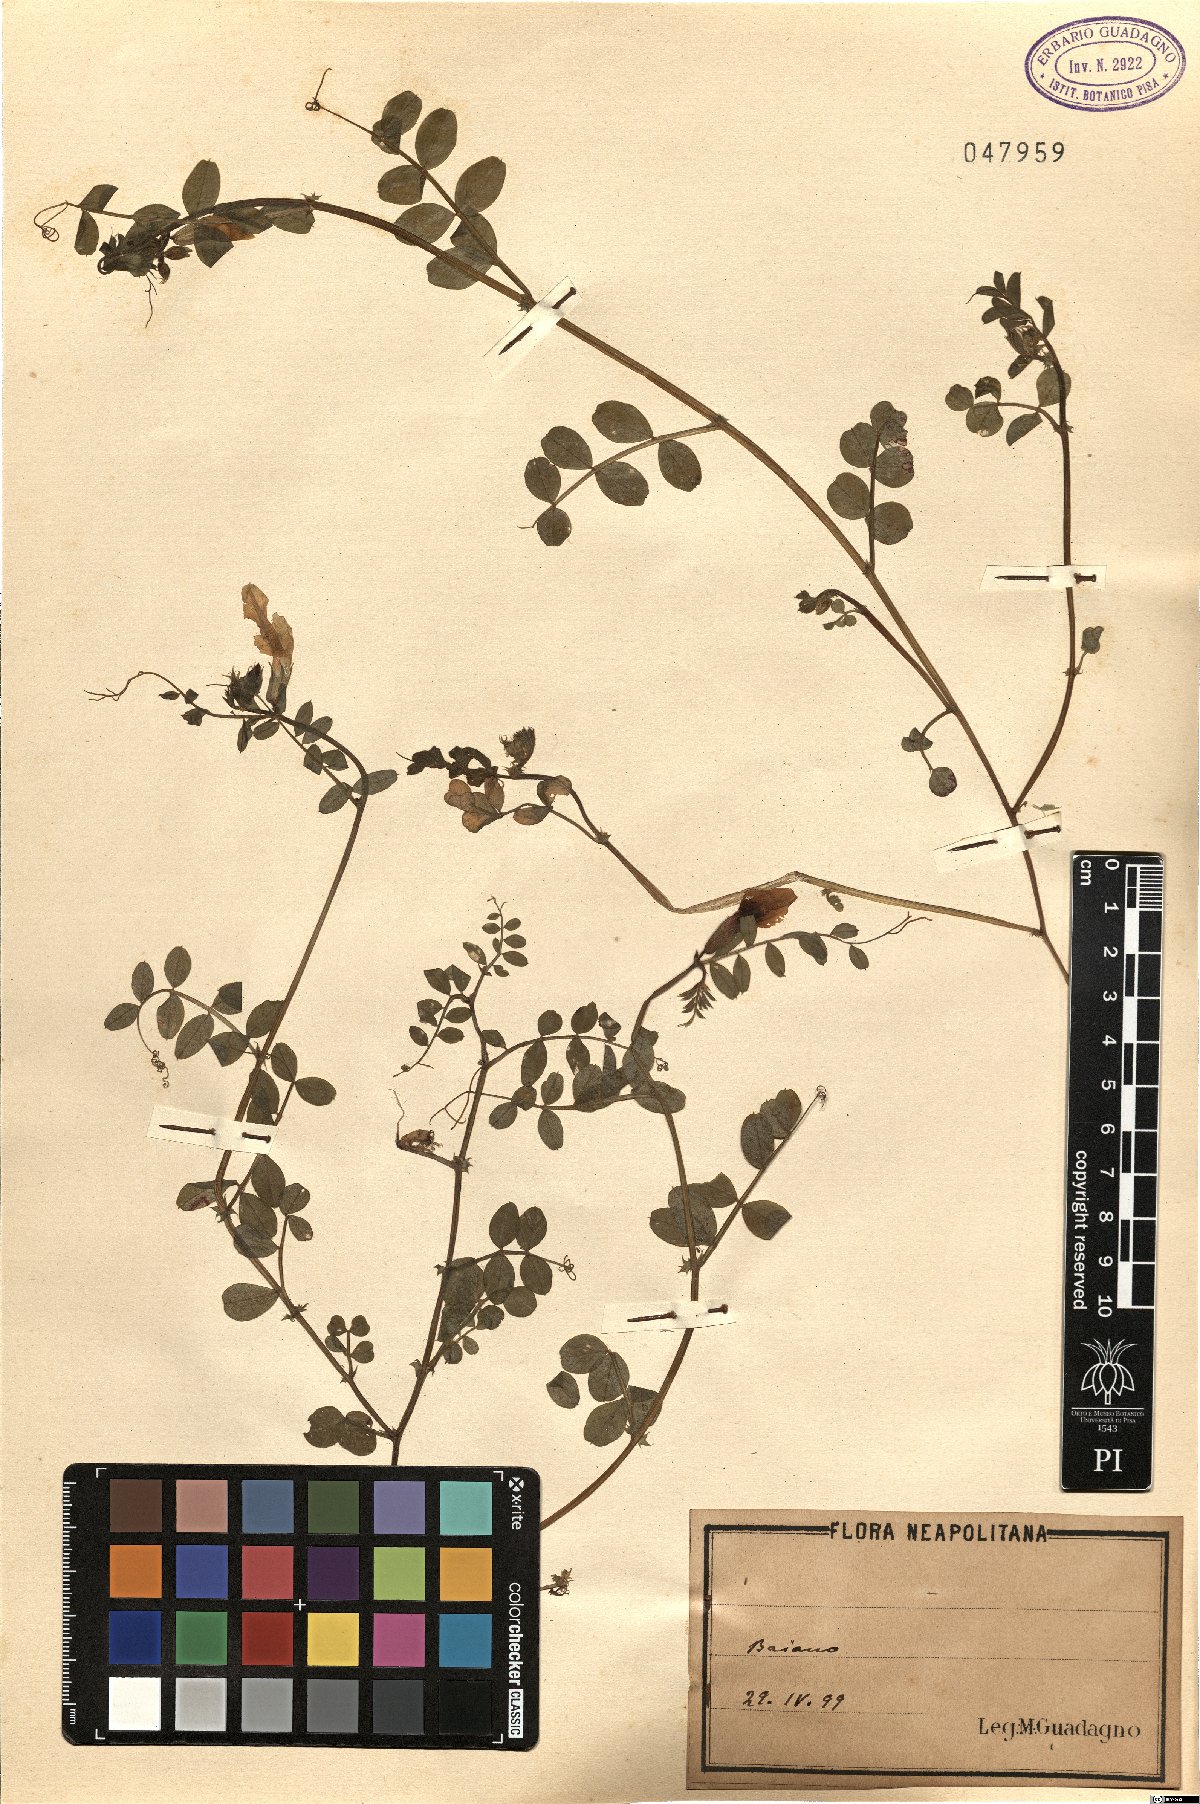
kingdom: Plantae
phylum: Tracheophyta
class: Magnoliopsida
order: Fabales
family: Fabaceae
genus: Vicia
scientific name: Vicia
